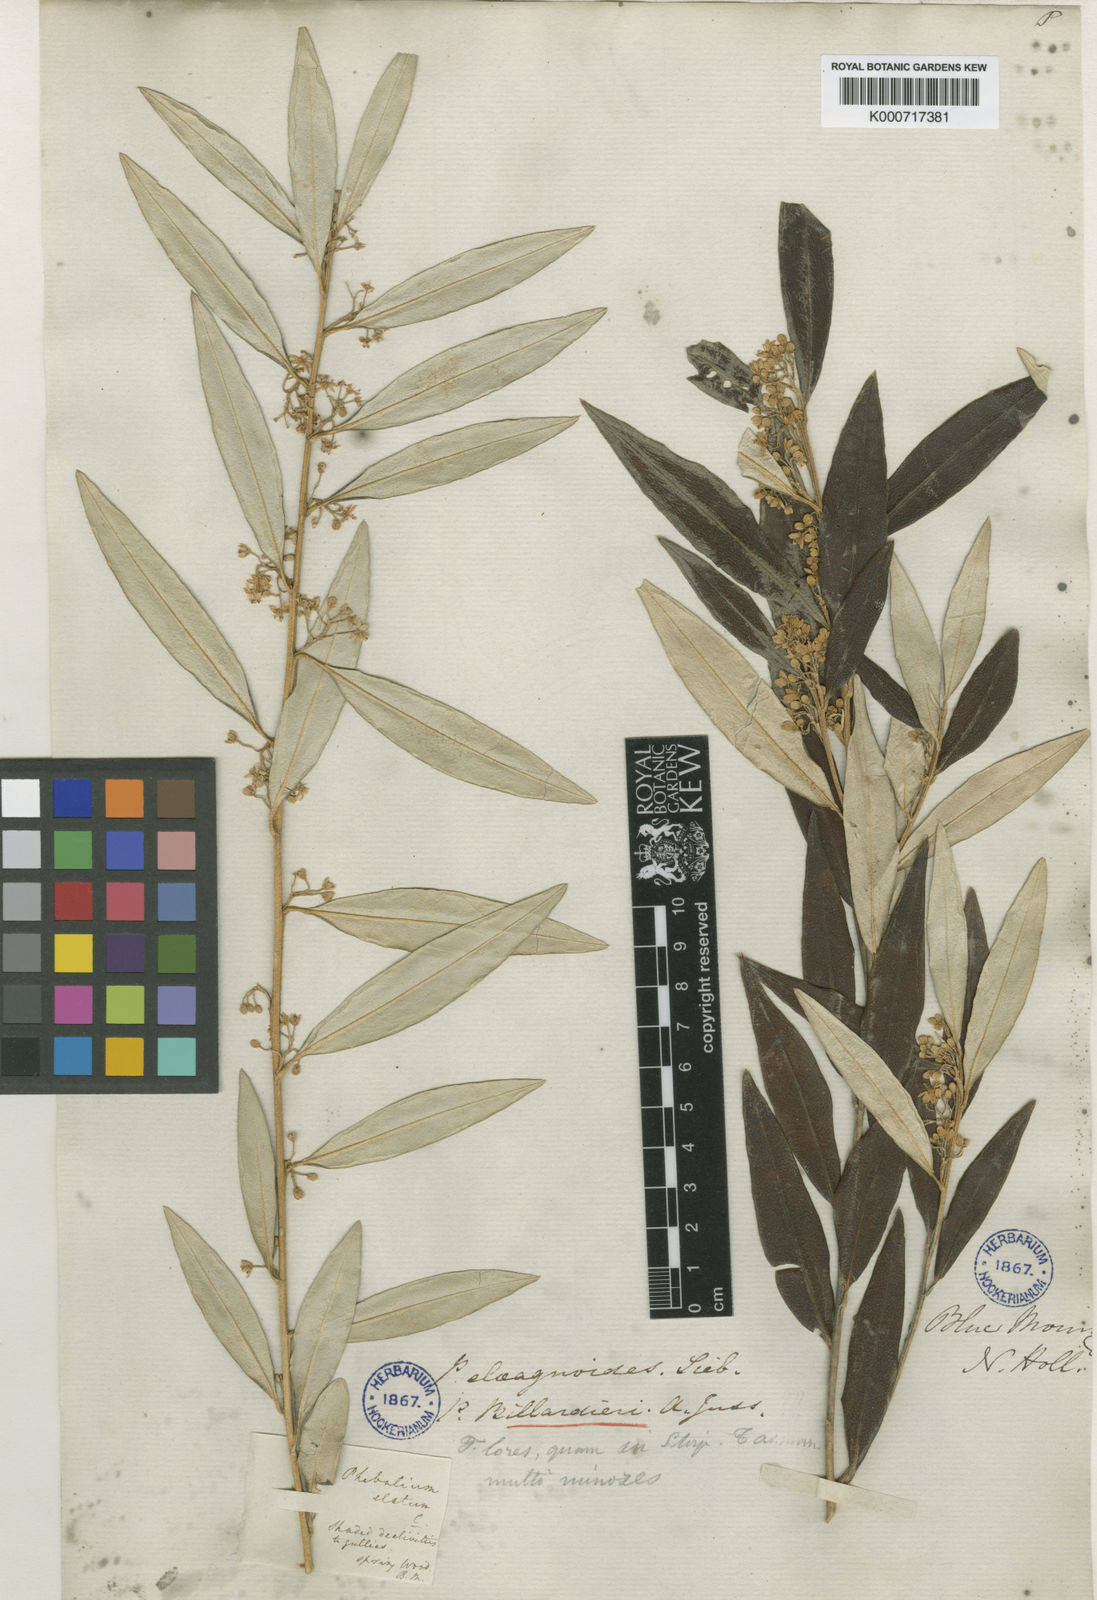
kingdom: Plantae
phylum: Tracheophyta
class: Magnoliopsida
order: Sapindales
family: Rutaceae
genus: Nematolepis
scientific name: Nematolepis squamea
